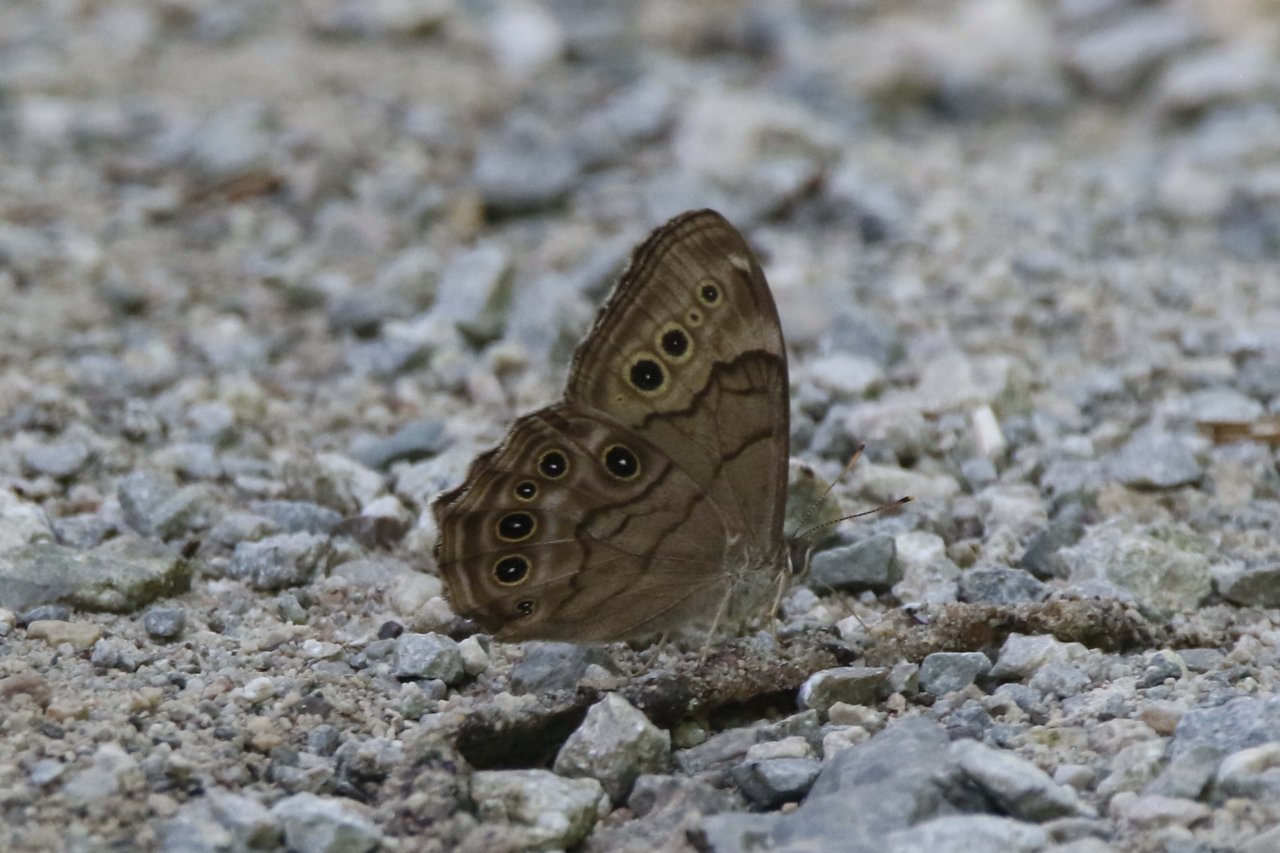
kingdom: Animalia
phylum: Arthropoda
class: Insecta
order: Lepidoptera
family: Nymphalidae
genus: Lethe
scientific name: Lethe anthedon
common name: Northern Pearly-Eye
